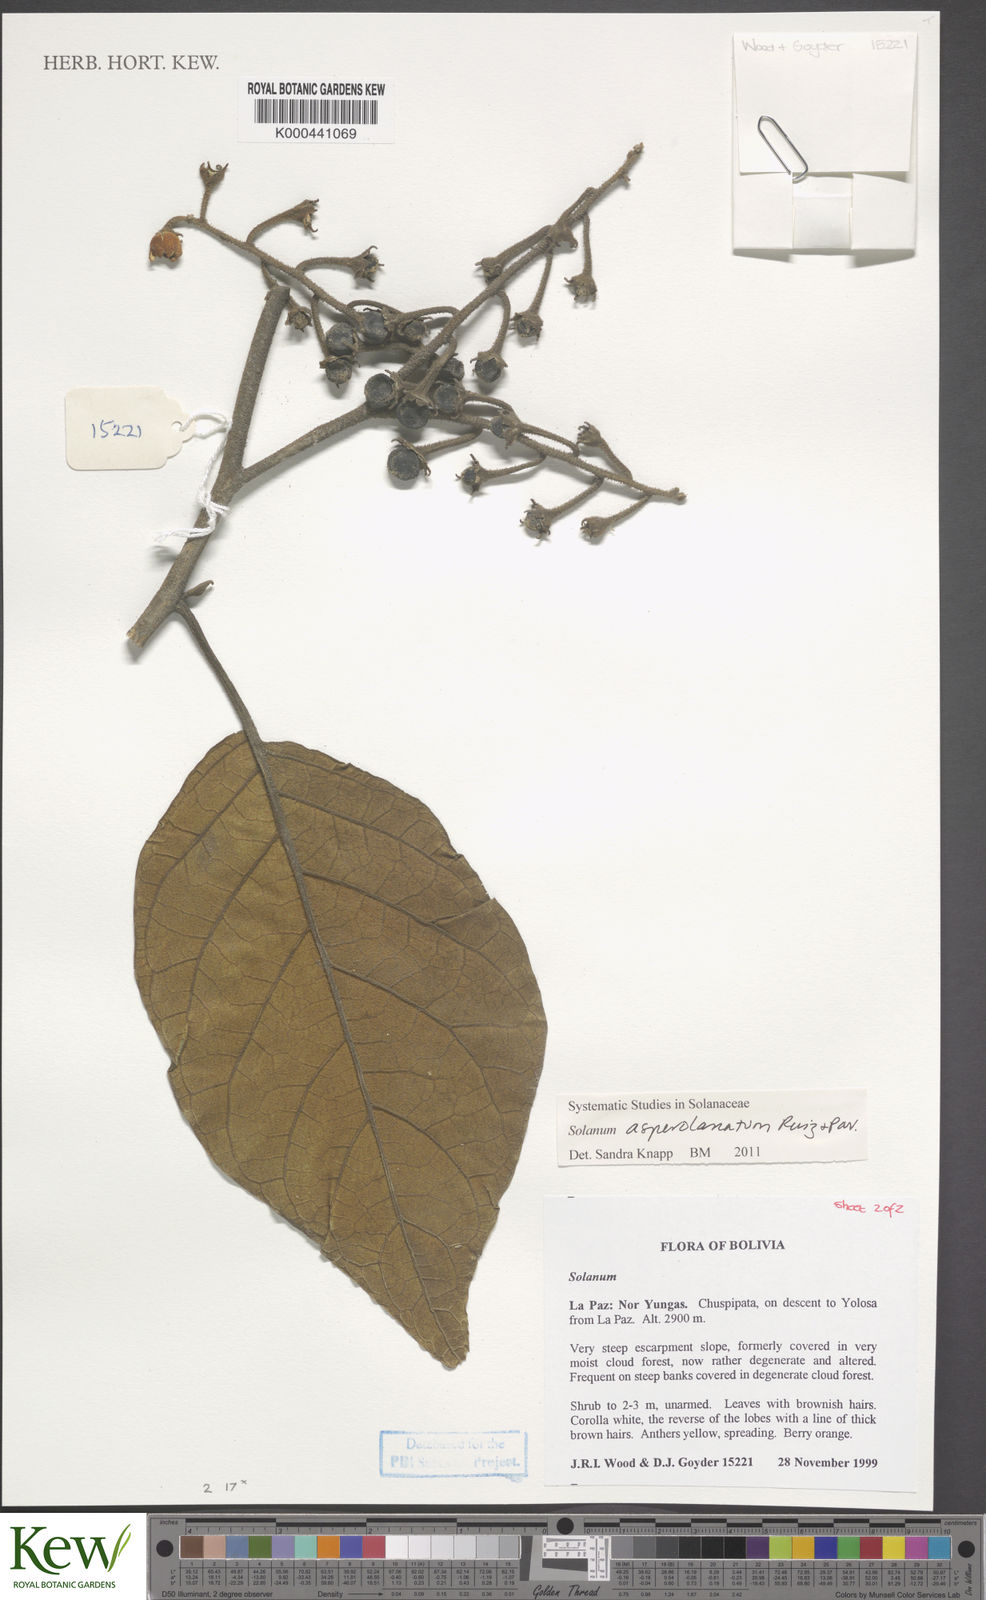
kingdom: Plantae
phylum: Tracheophyta
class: Magnoliopsida
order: Solanales
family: Solanaceae
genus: Solanum
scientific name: Solanum asperolanatum
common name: Devil's-fig
